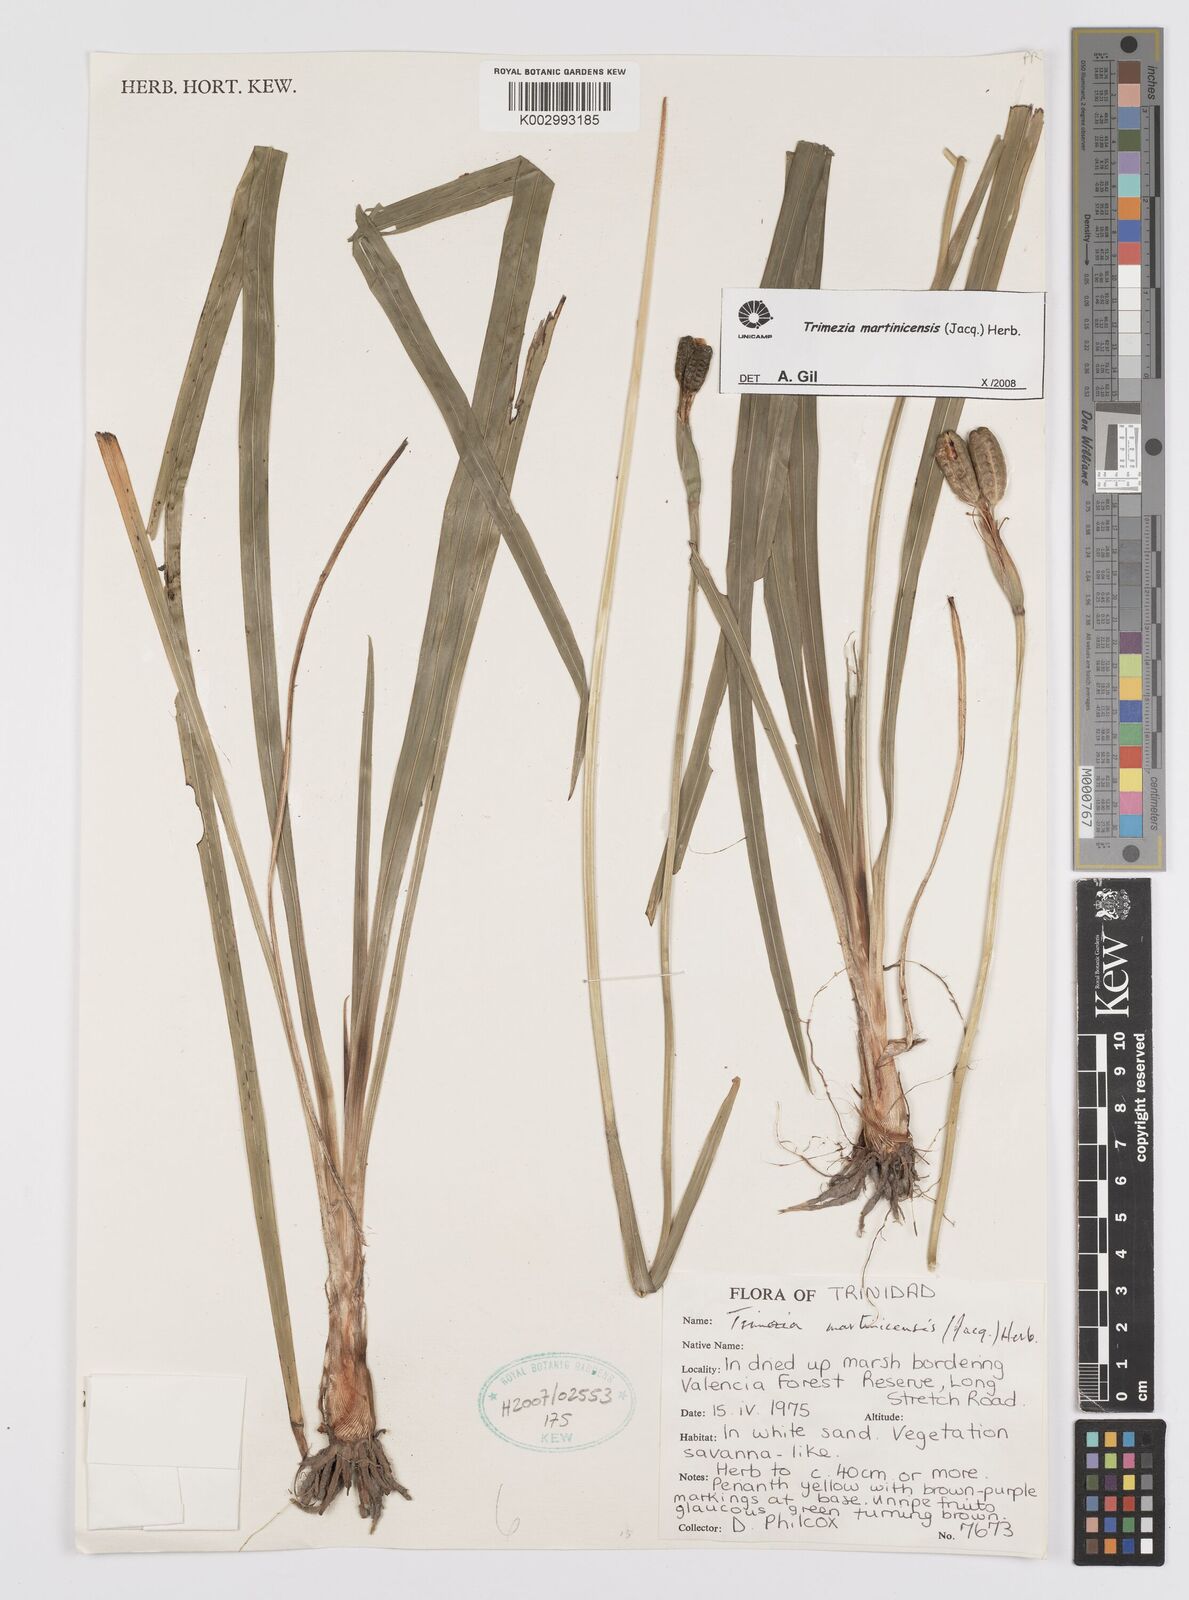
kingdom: Plantae
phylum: Tracheophyta
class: Liliopsida
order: Asparagales
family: Iridaceae
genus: Trimezia
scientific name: Trimezia martinicensis
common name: Martinique trimezia
